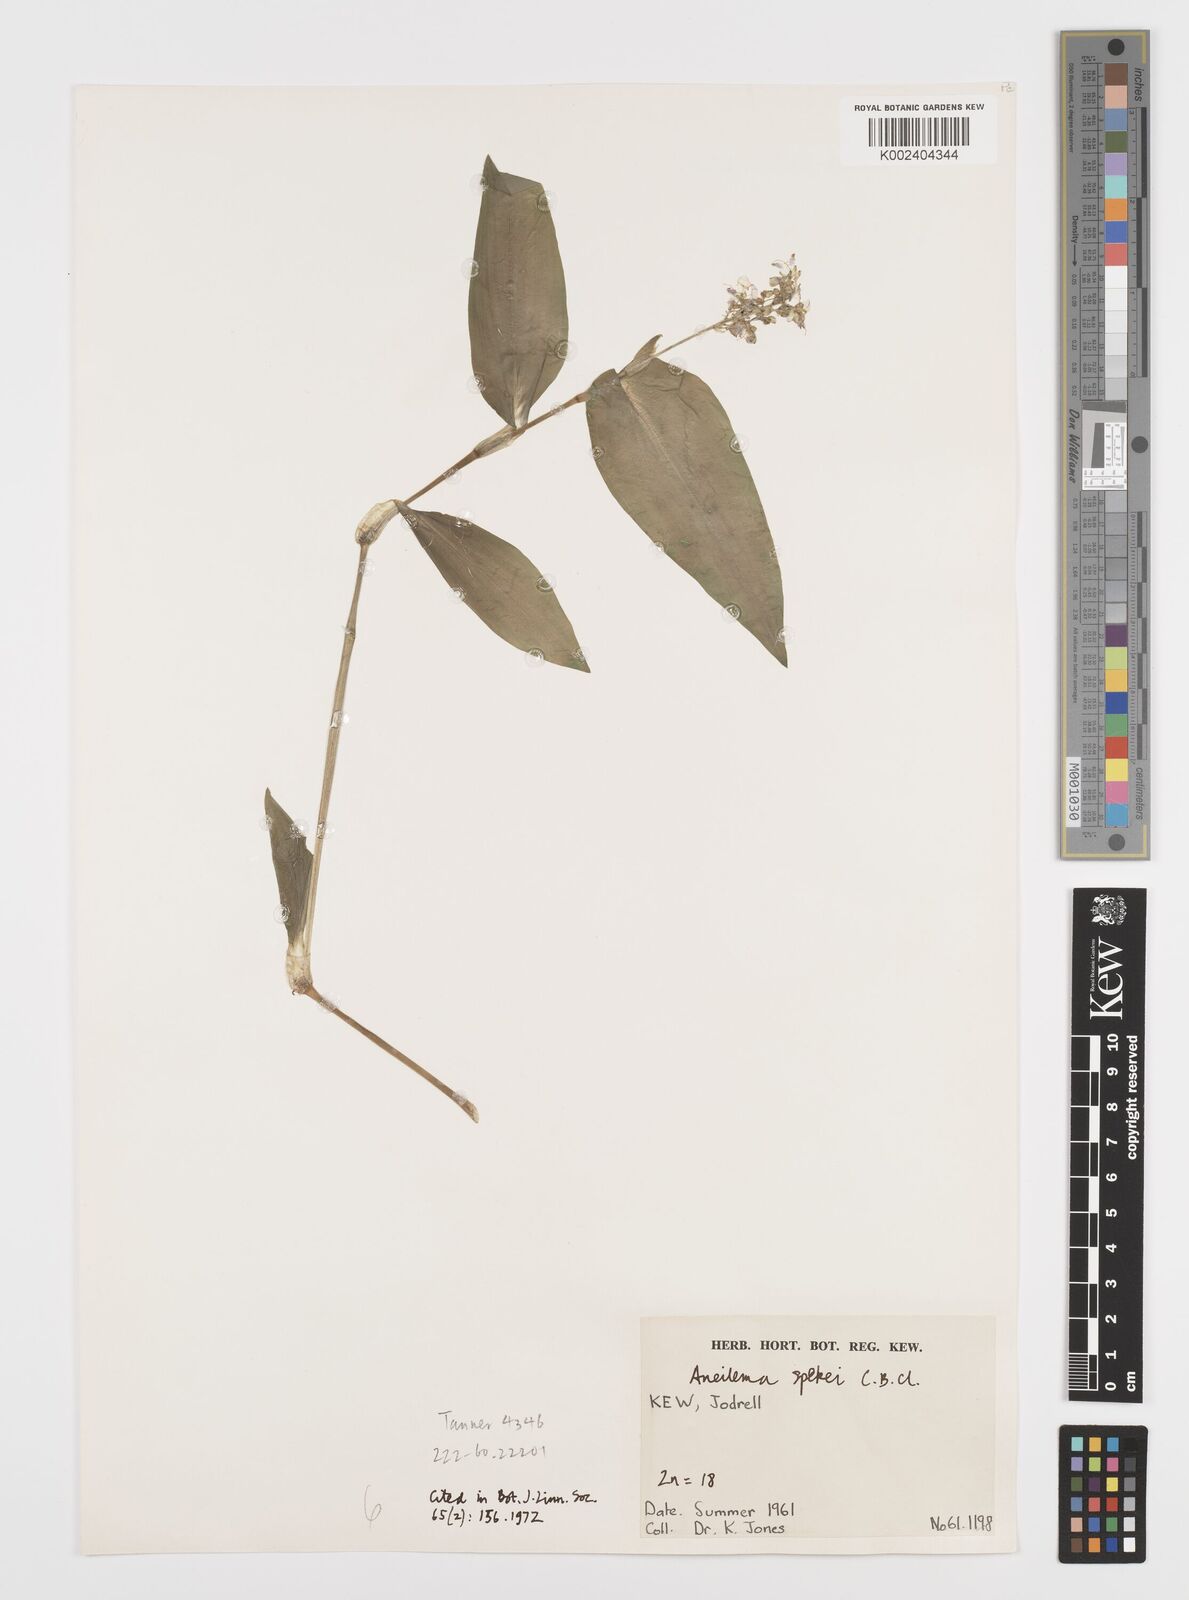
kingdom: Plantae
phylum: Tracheophyta
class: Liliopsida
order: Commelinales
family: Commelinaceae
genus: Aneilema
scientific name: Aneilema spekei
